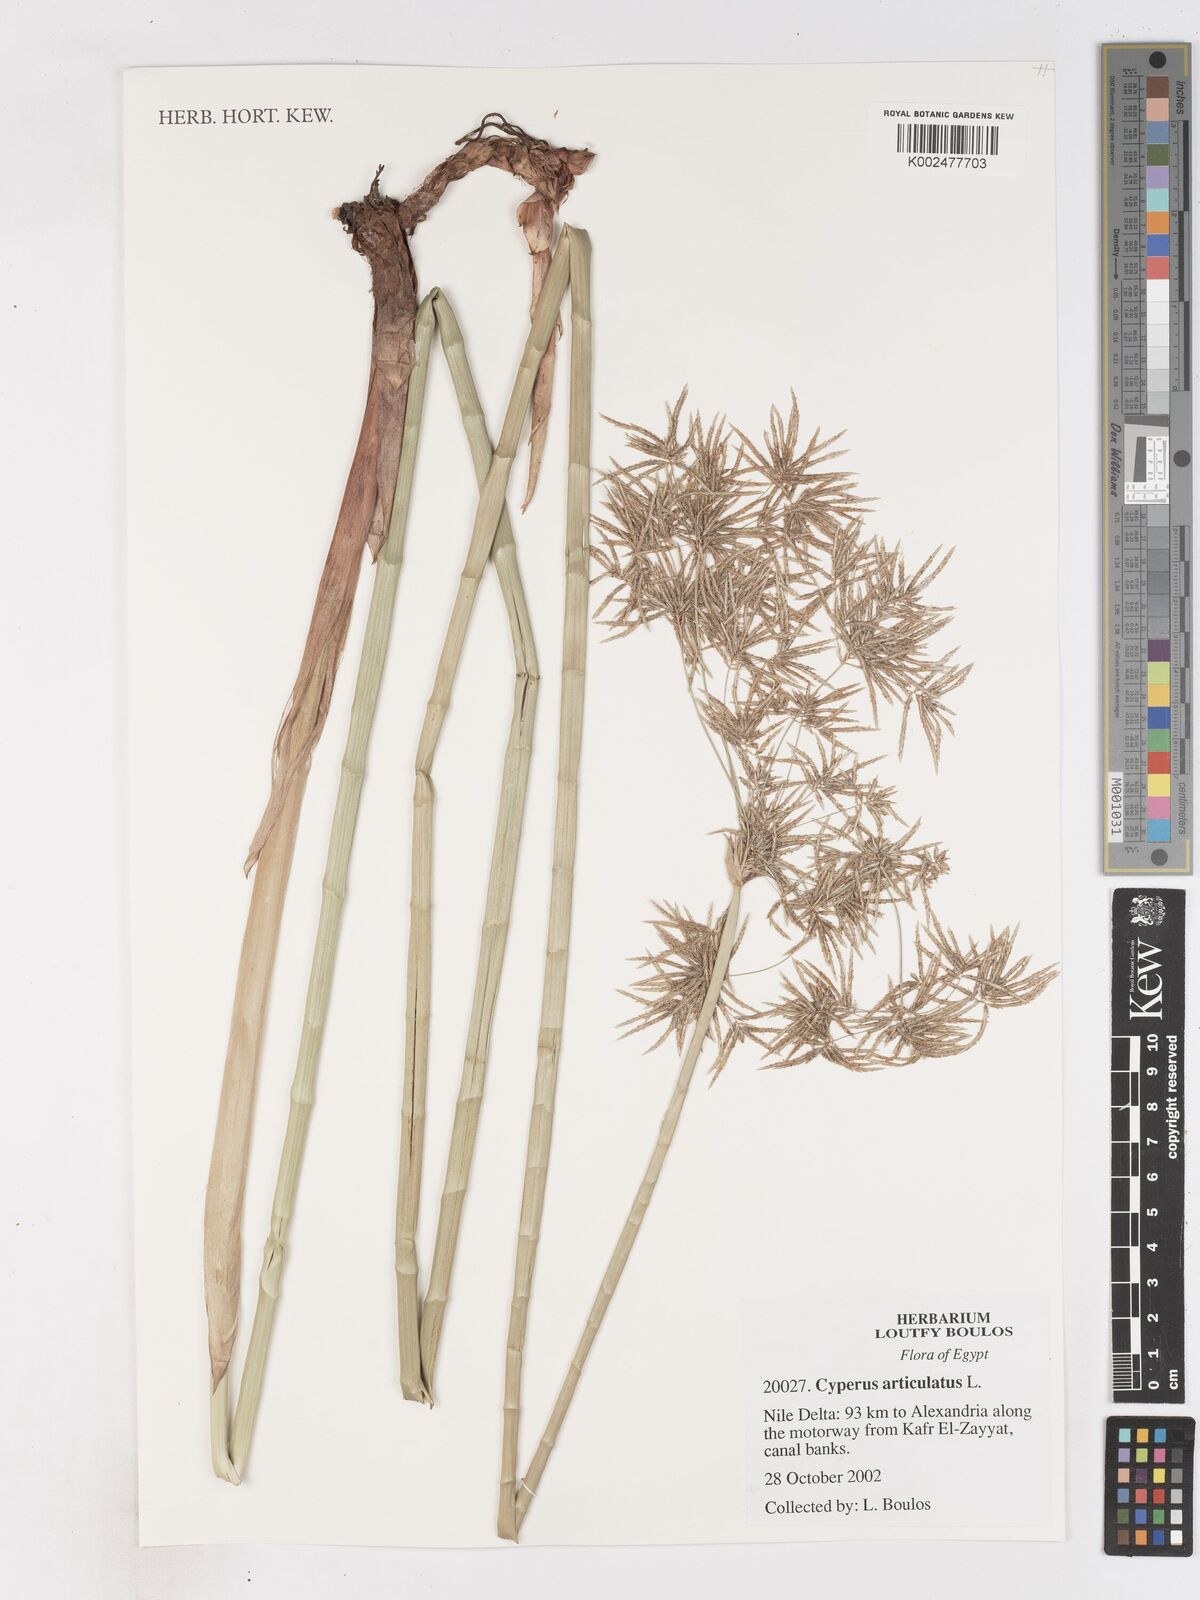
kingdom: Plantae
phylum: Tracheophyta
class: Liliopsida
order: Poales
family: Cyperaceae
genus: Cyperus
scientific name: Cyperus articulatus
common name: Jointed flatsedge
